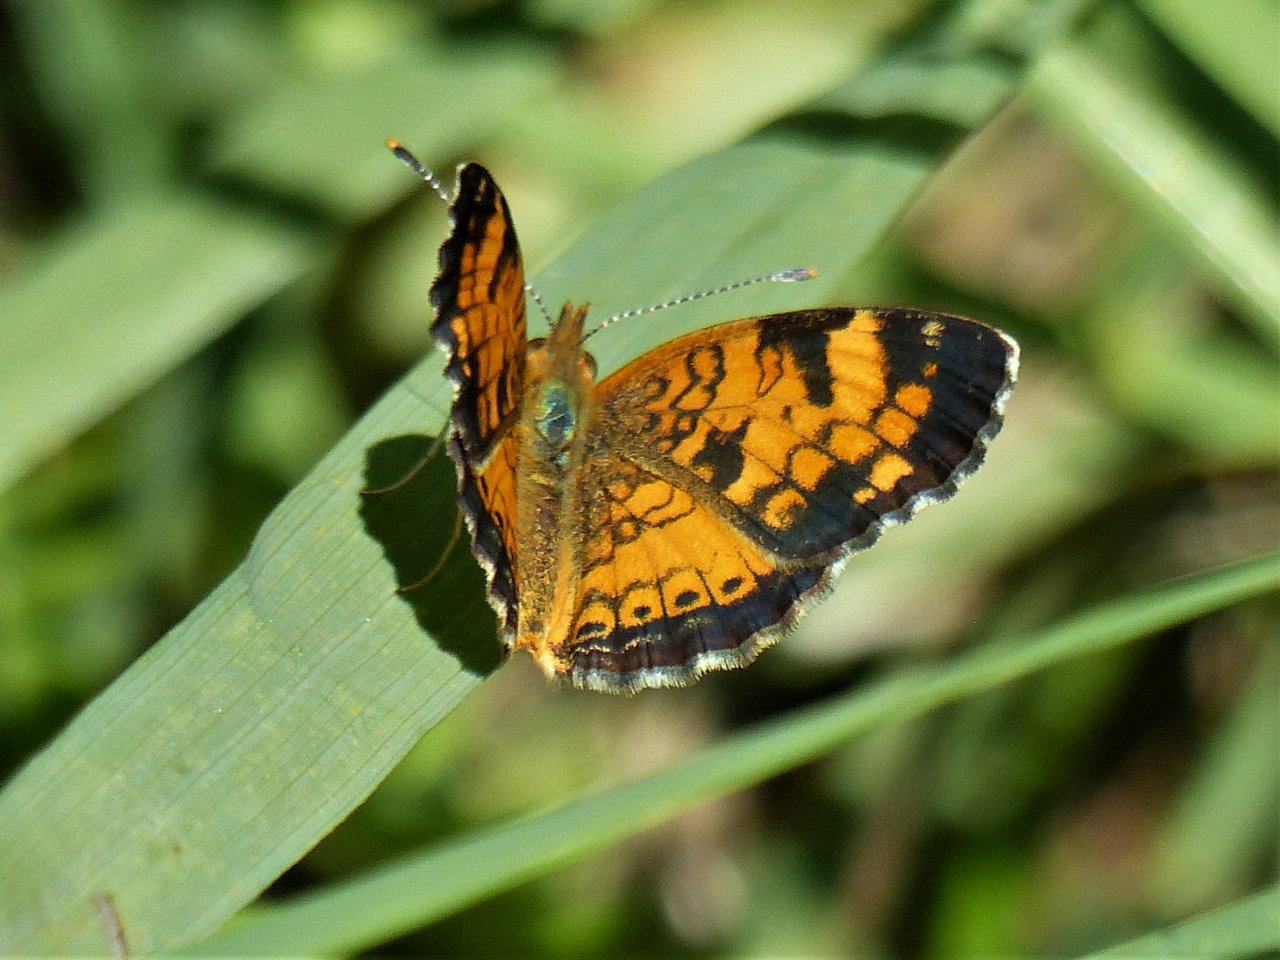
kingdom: Animalia
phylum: Arthropoda
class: Insecta
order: Lepidoptera
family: Nymphalidae
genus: Phyciodes
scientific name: Phyciodes tharos
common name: Northern Crescent
